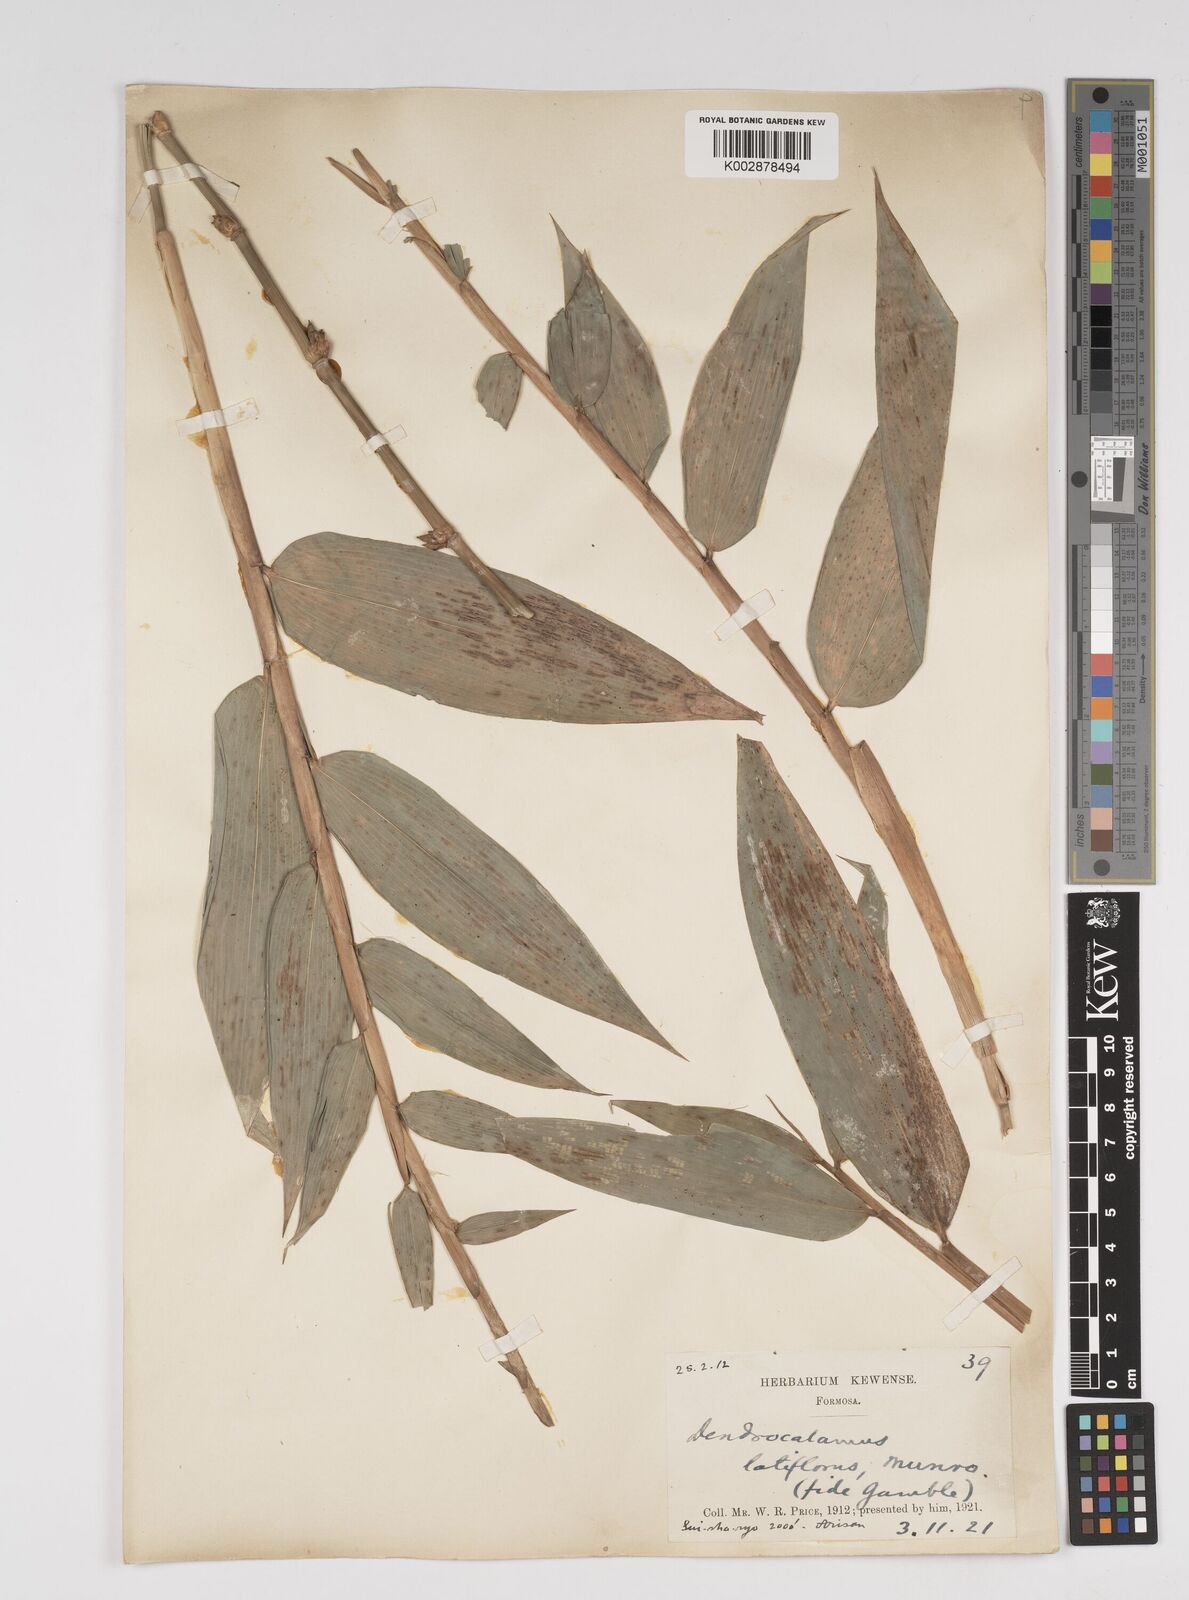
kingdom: Plantae
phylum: Tracheophyta
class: Liliopsida
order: Poales
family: Poaceae
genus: Dendrocalamus
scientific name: Dendrocalamus latiflorus
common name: Giant bamboo
